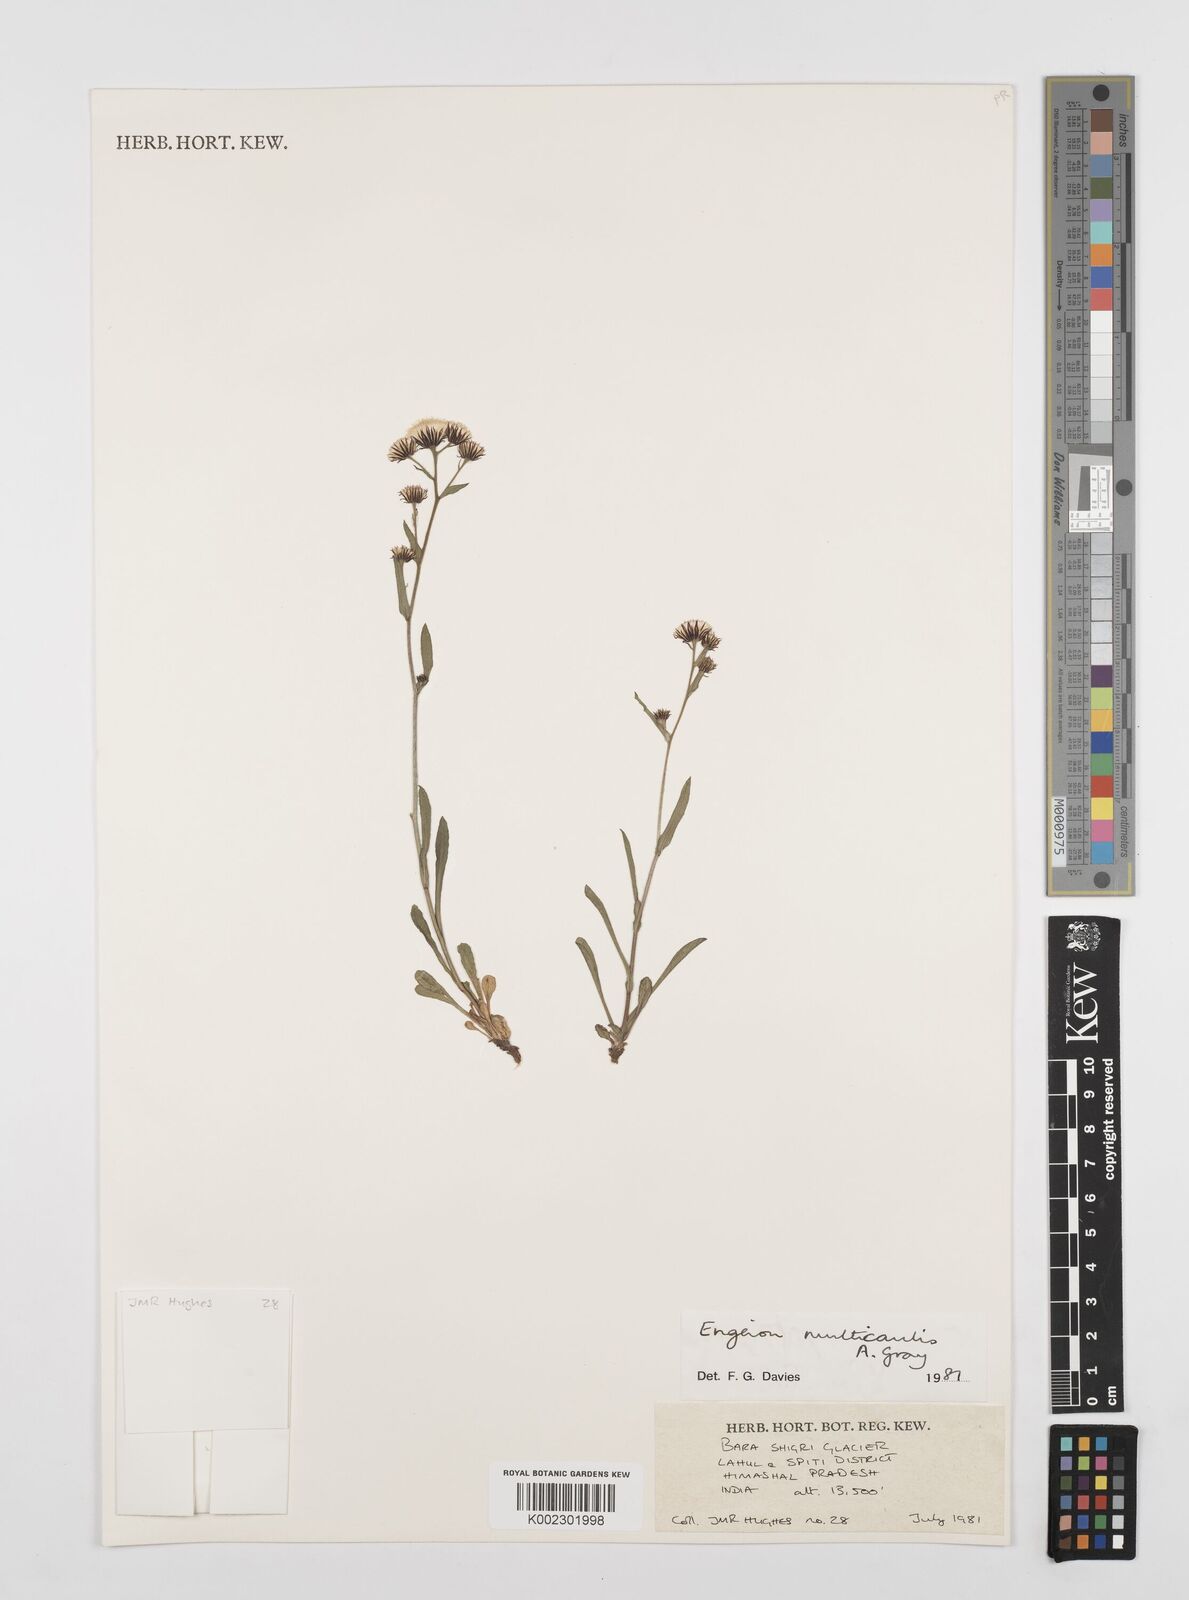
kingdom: Plantae
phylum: Tracheophyta
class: Magnoliopsida
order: Asterales
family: Asteraceae
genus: Erigeron
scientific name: Erigeron alpinus
